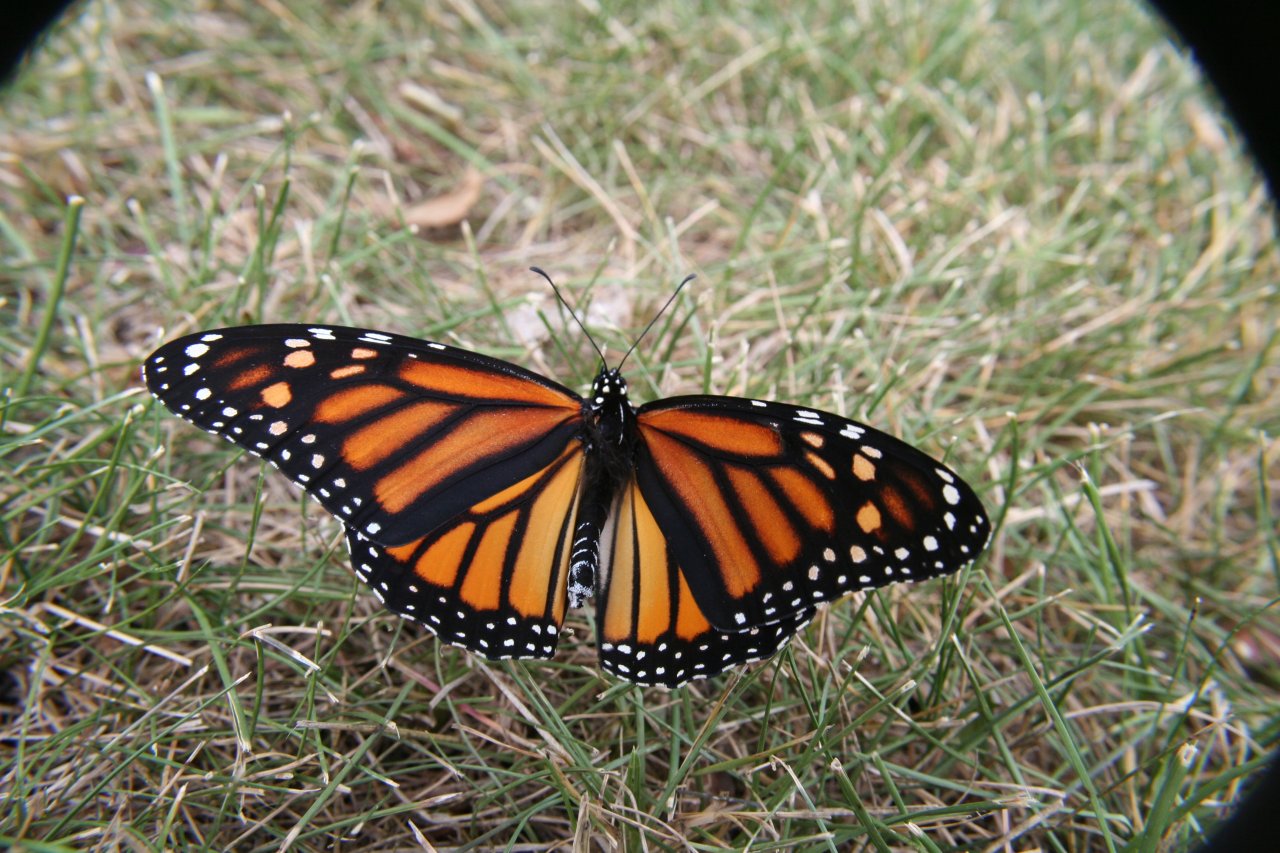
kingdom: Animalia
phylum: Arthropoda
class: Insecta
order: Lepidoptera
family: Nymphalidae
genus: Danaus
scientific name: Danaus plexippus
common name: Monarch
